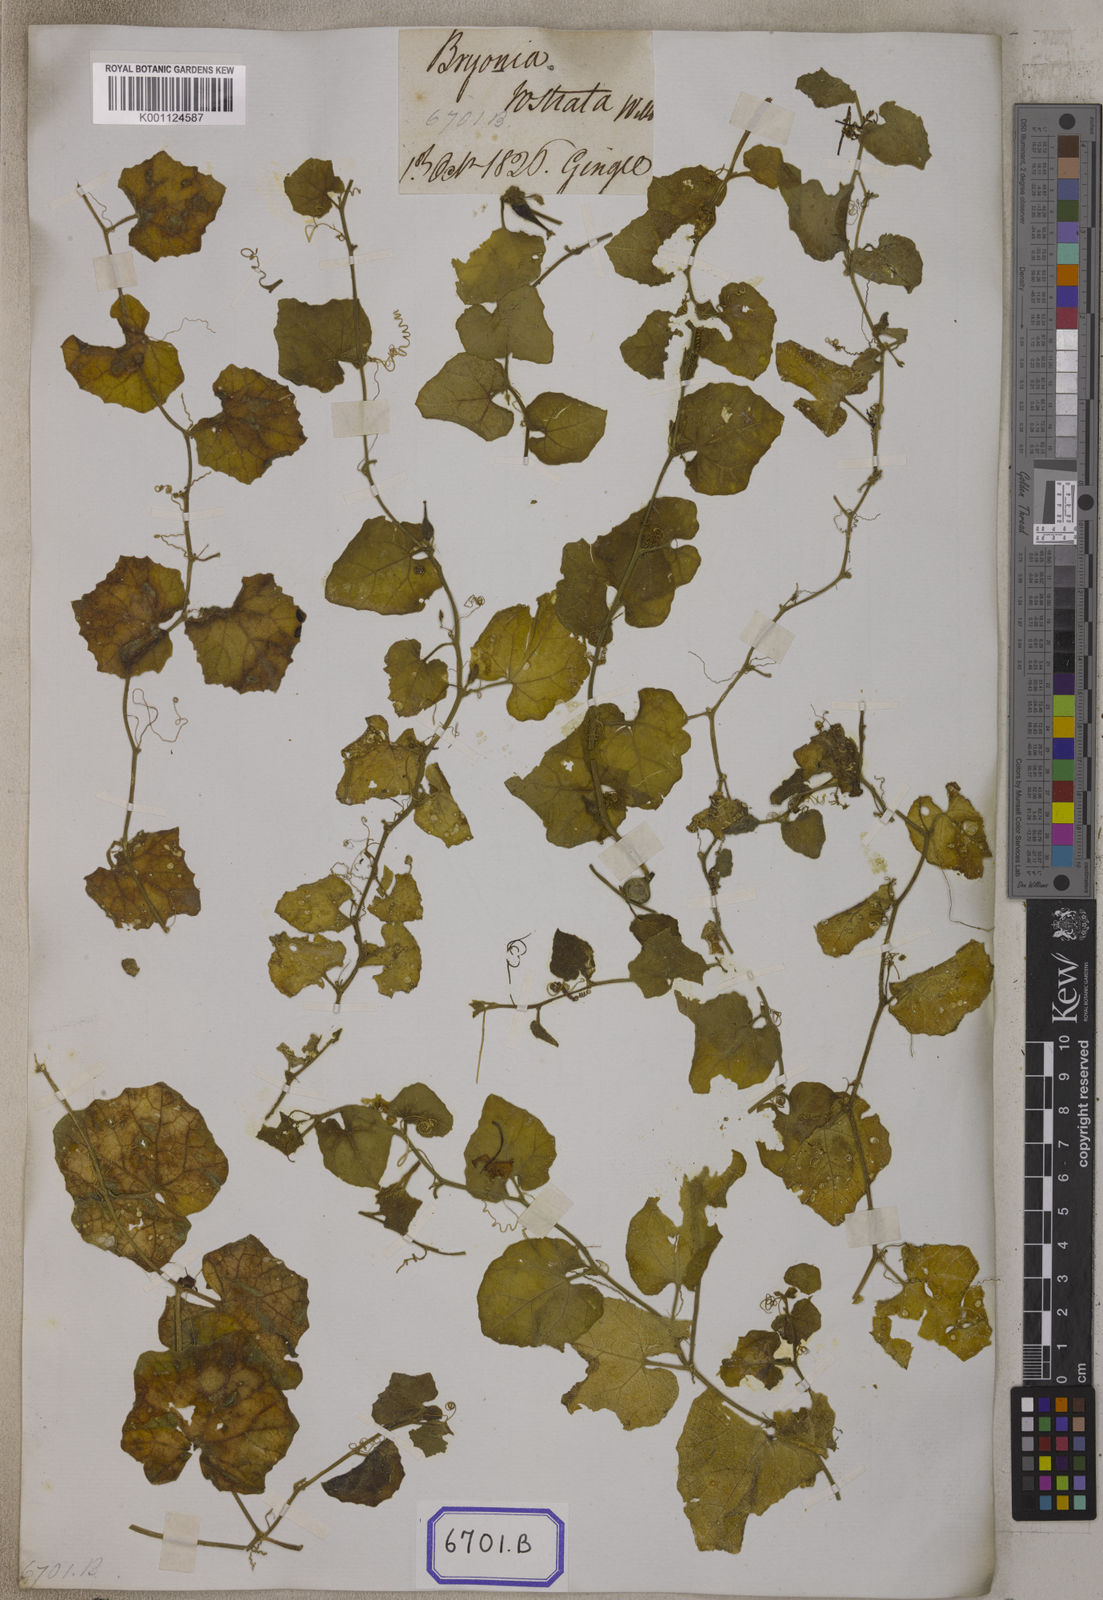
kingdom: Plantae
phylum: Tracheophyta
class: Magnoliopsida
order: Cucurbitales
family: Cucurbitaceae
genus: Kedrostis
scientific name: Kedrostis foetidissima
